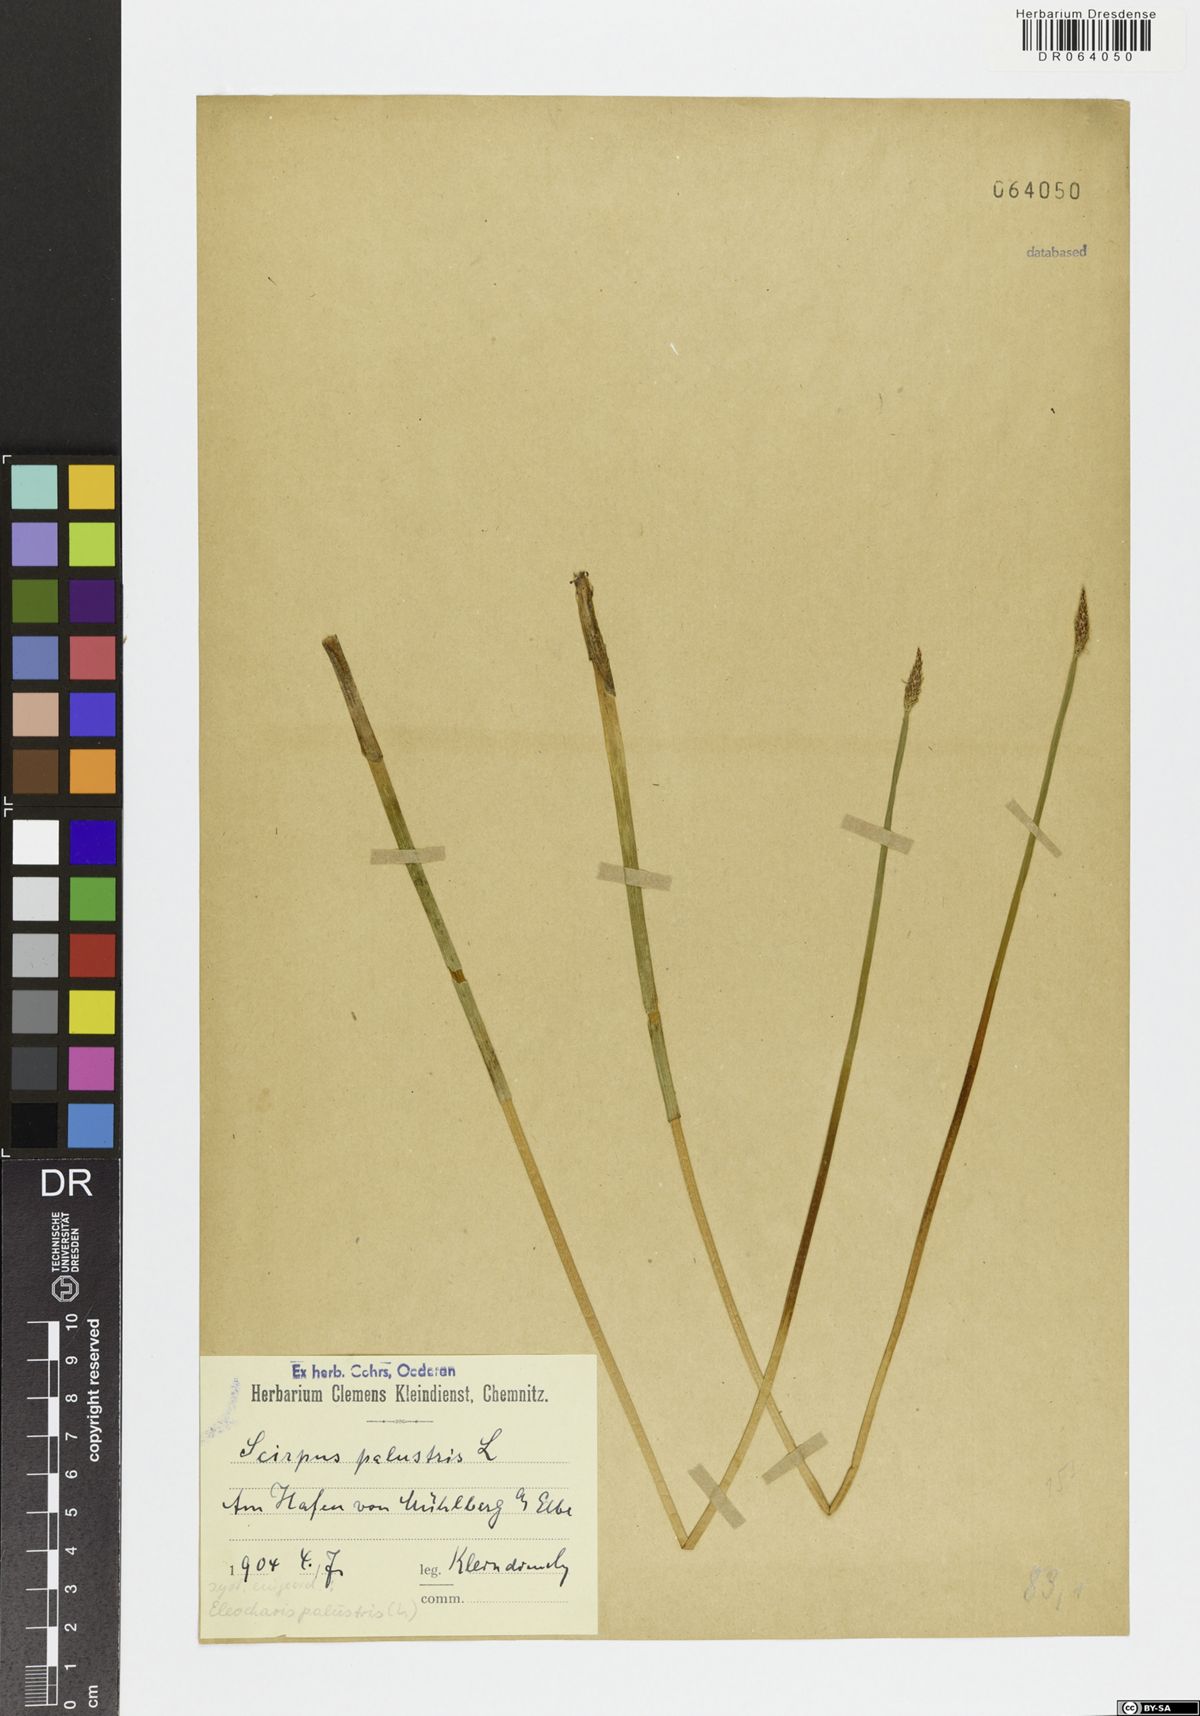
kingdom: Plantae
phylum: Tracheophyta
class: Liliopsida
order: Poales
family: Cyperaceae
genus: Eleocharis
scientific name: Eleocharis palustris
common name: Common spike-rush
